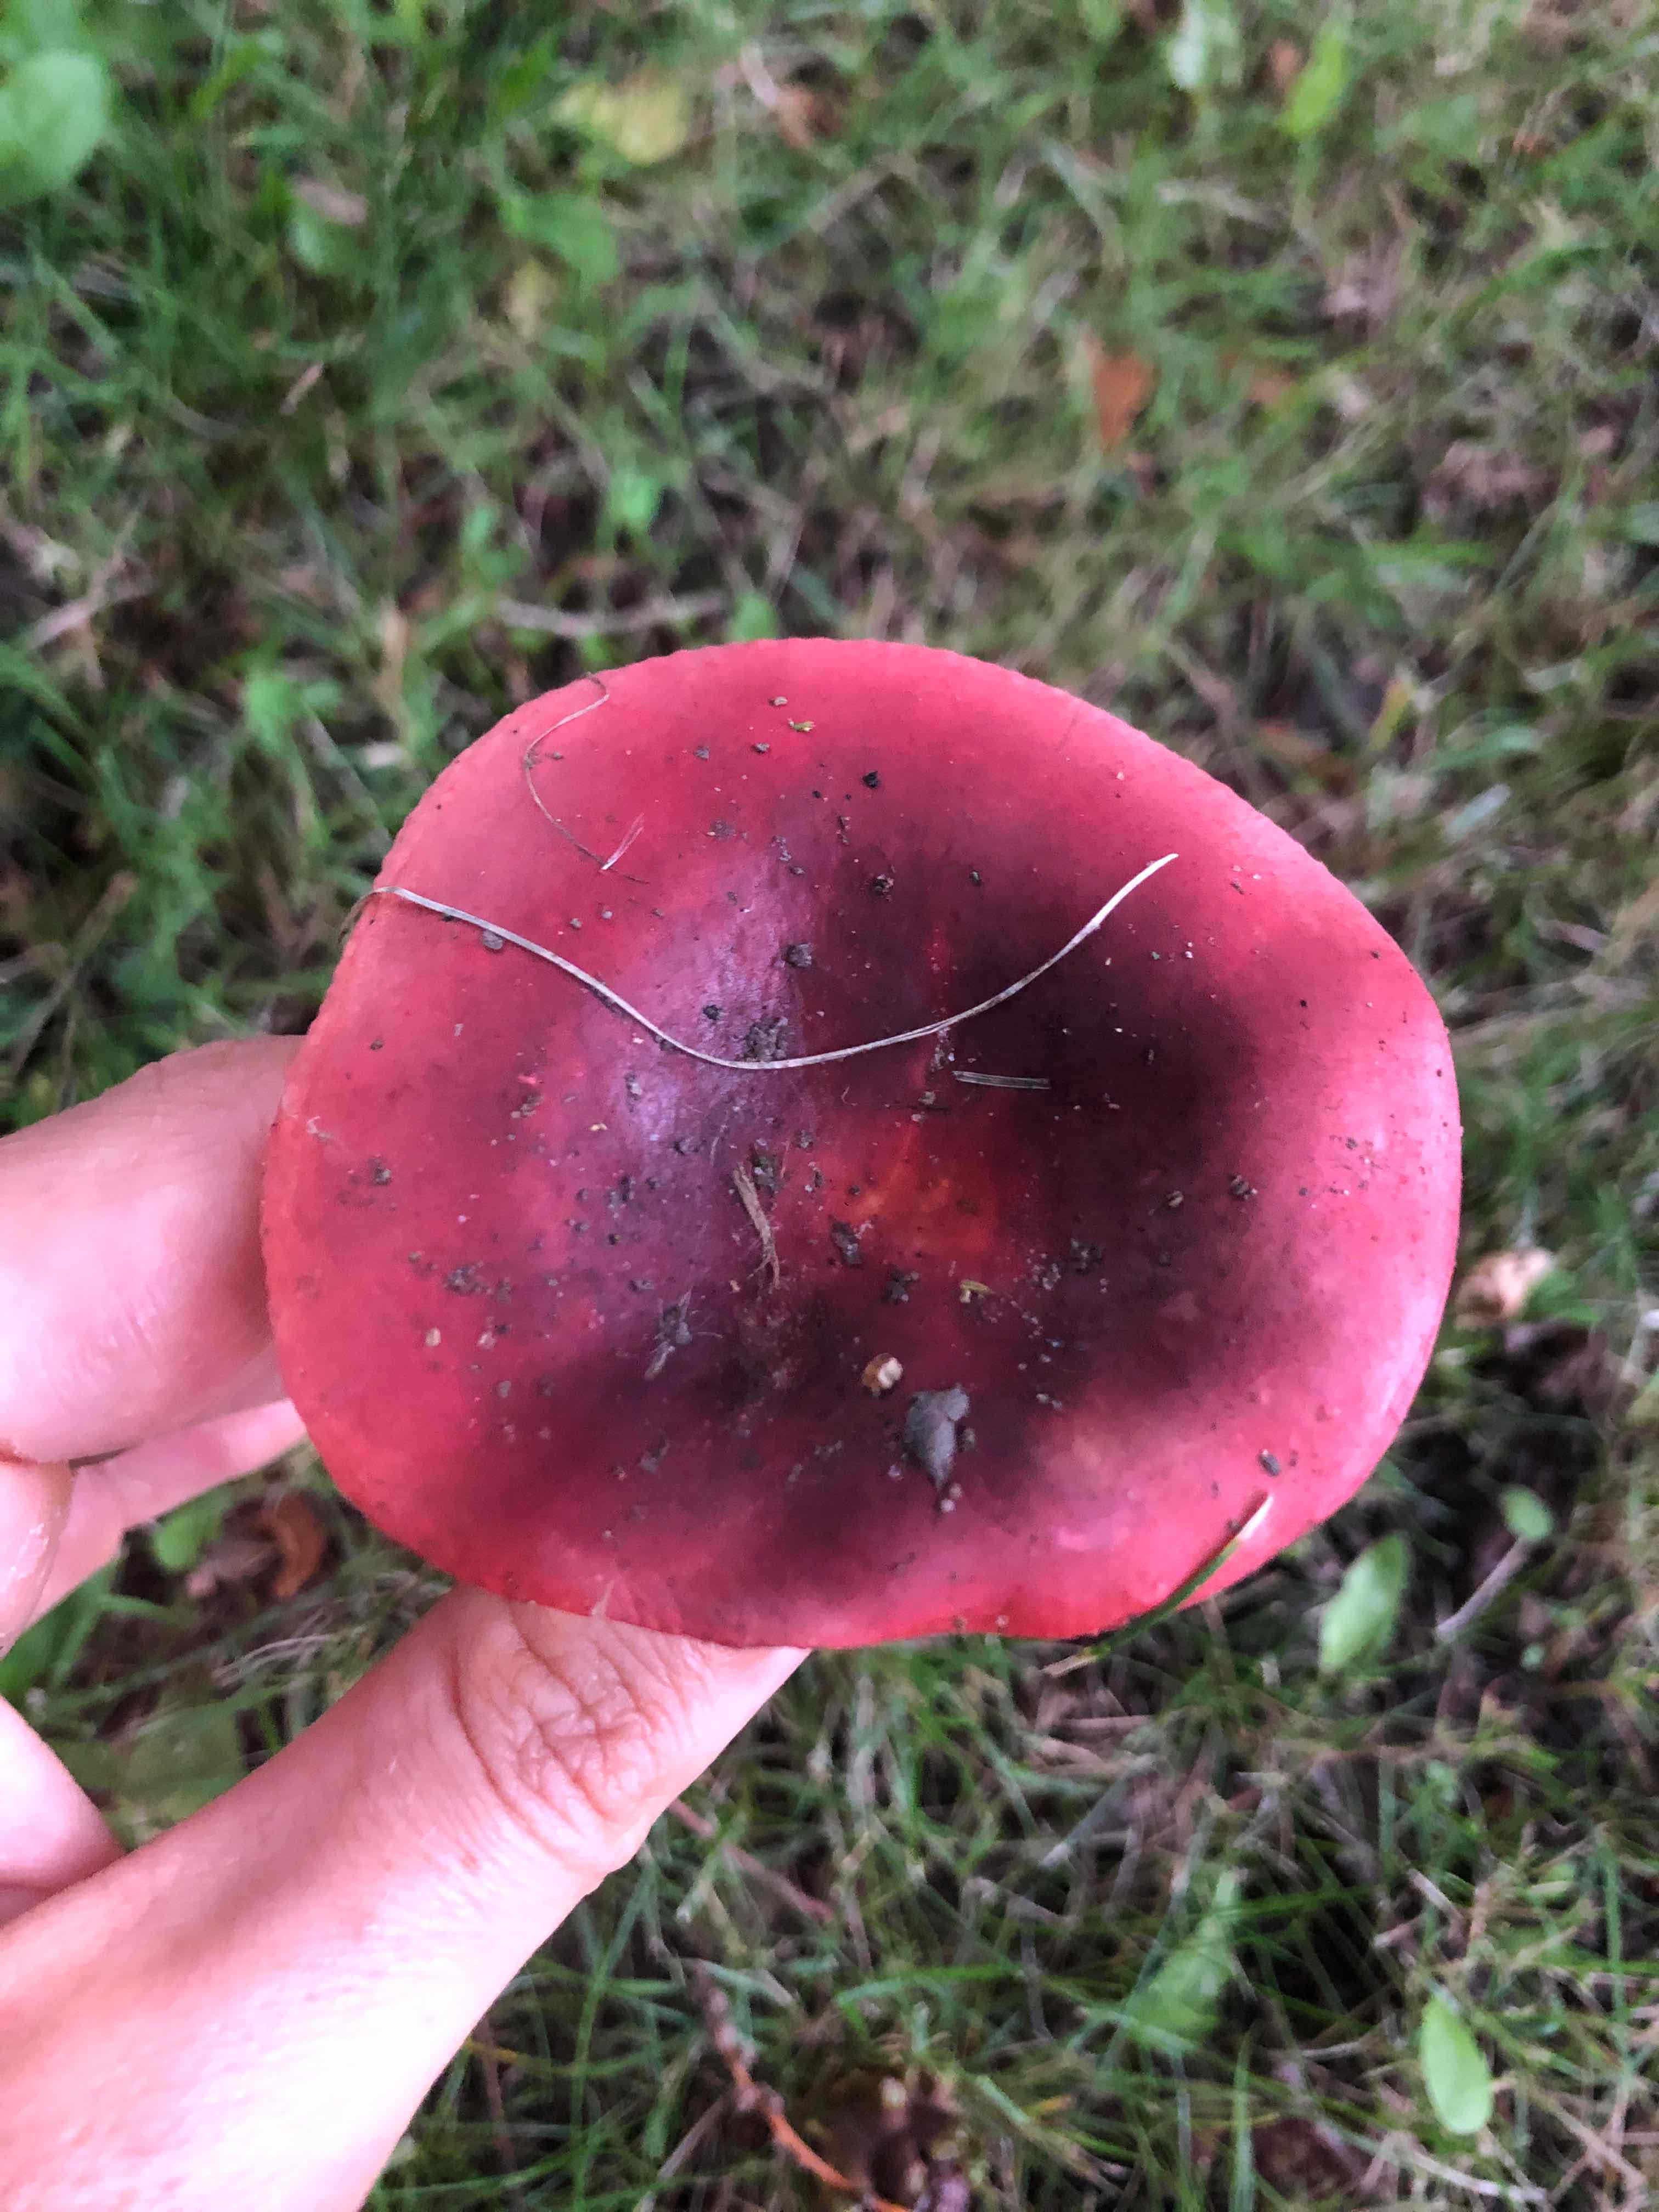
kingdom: Fungi
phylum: Basidiomycota
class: Agaricomycetes
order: Russulales
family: Russulaceae
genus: Russula
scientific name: Russula
